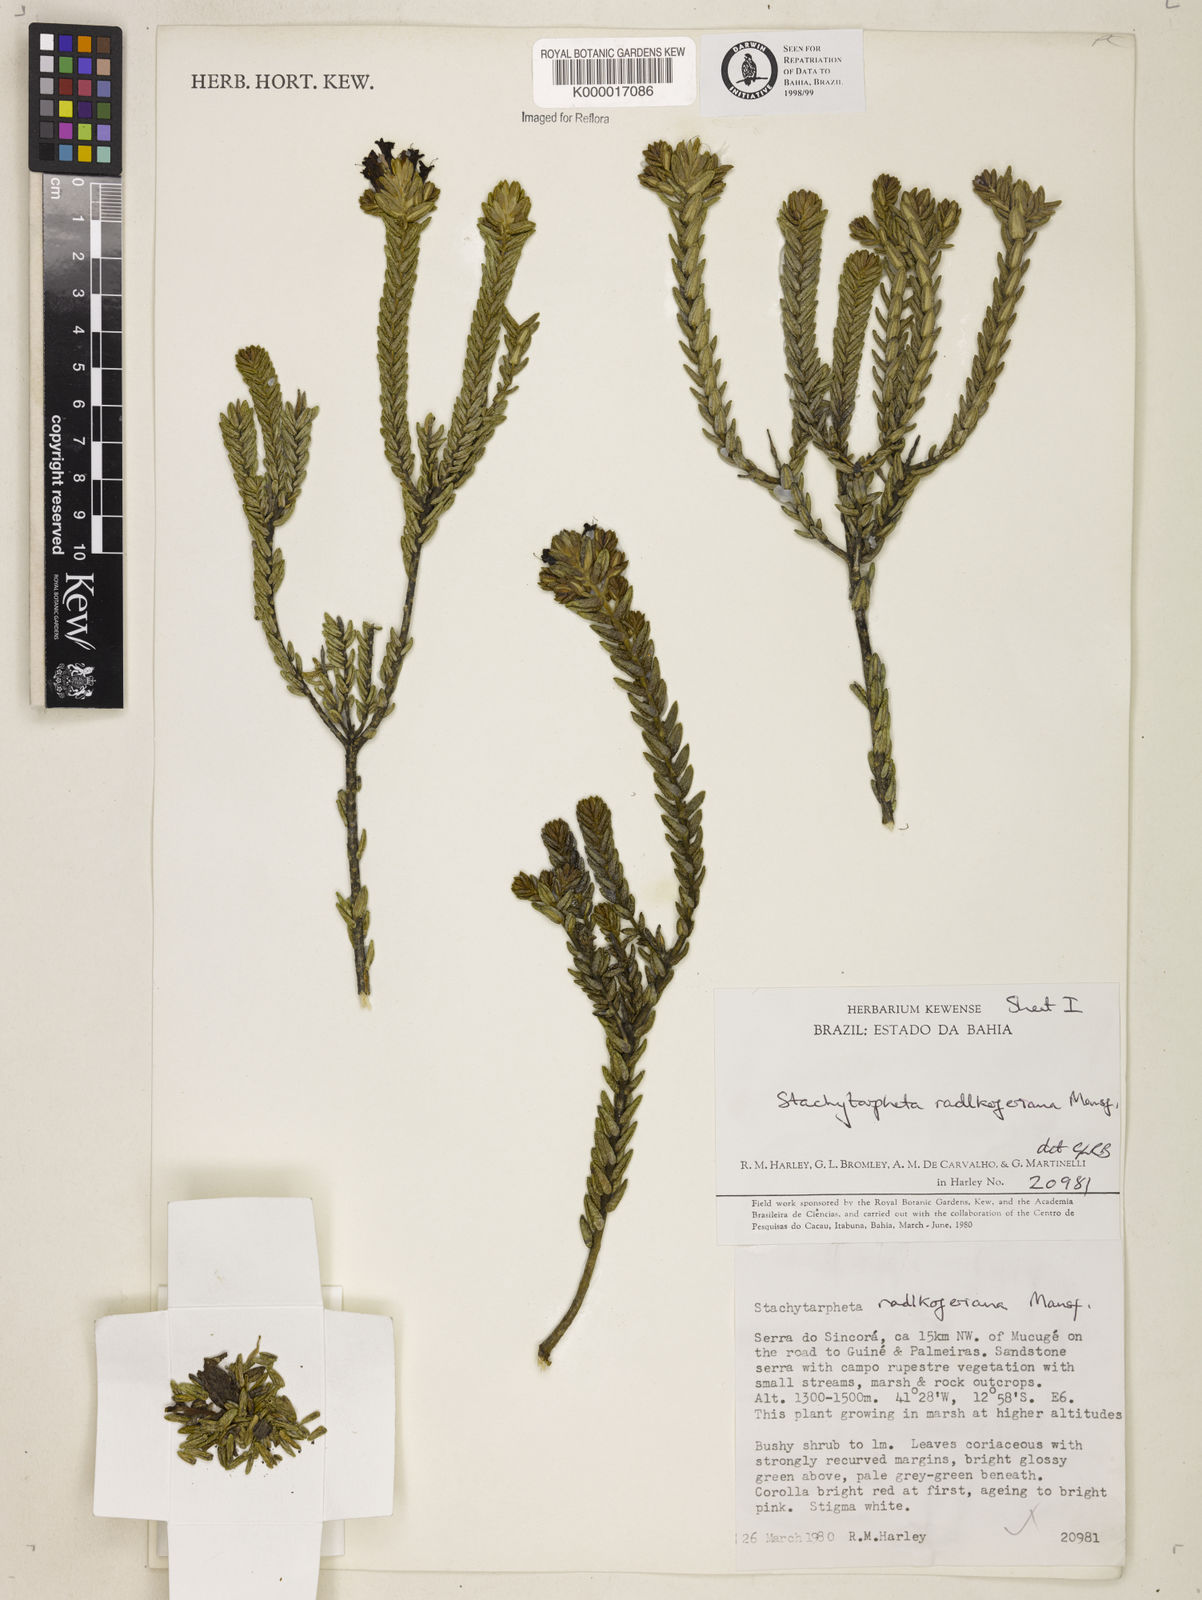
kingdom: Plantae
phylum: Tracheophyta
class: Magnoliopsida
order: Lamiales
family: Verbenaceae
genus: Stachytarpheta
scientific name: Stachytarpheta radlkoferiana
